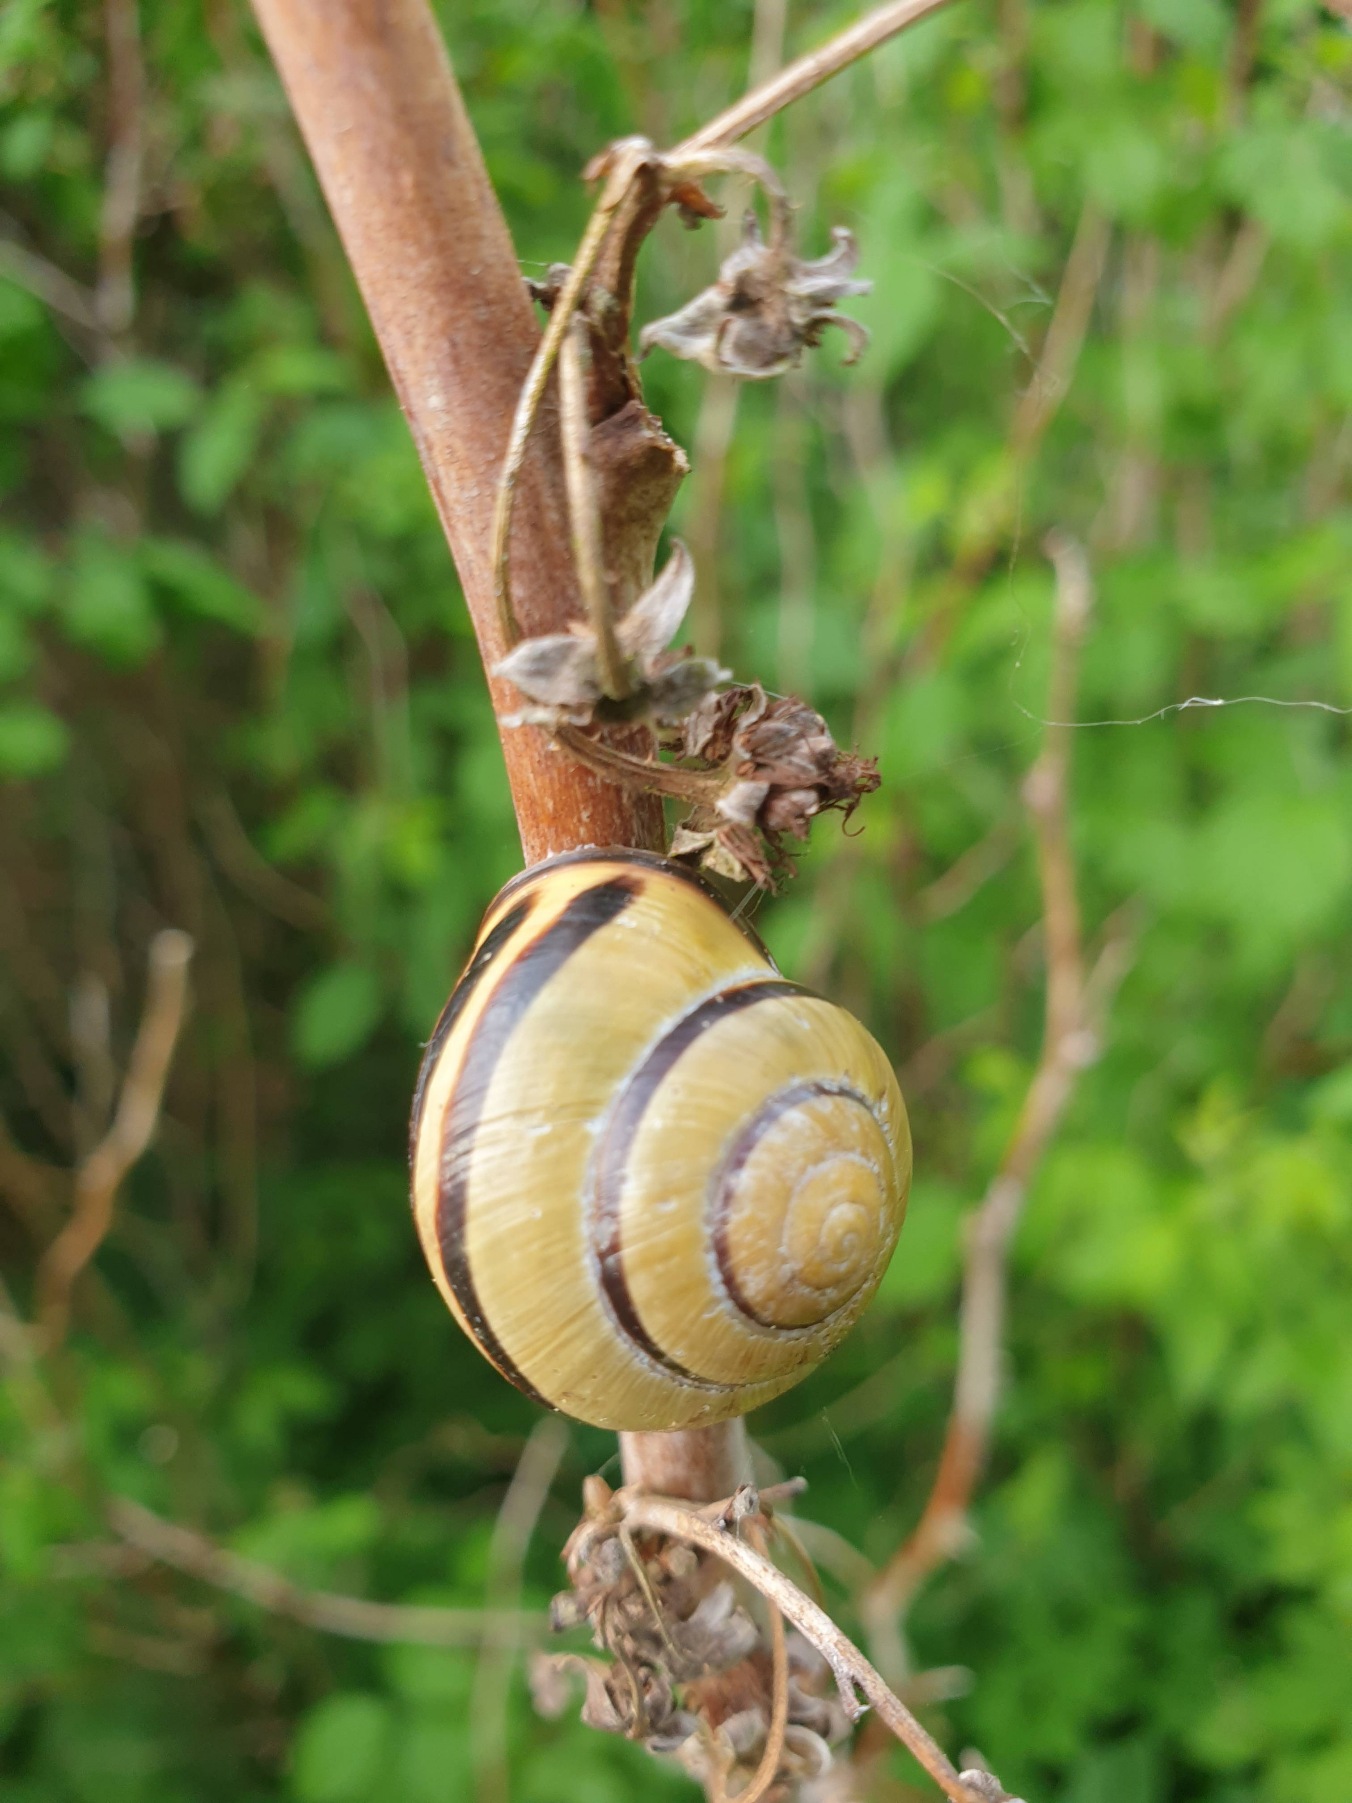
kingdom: Animalia
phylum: Mollusca
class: Gastropoda
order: Stylommatophora
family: Helicidae
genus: Cepaea
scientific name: Cepaea nemoralis
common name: Lundsnegl
